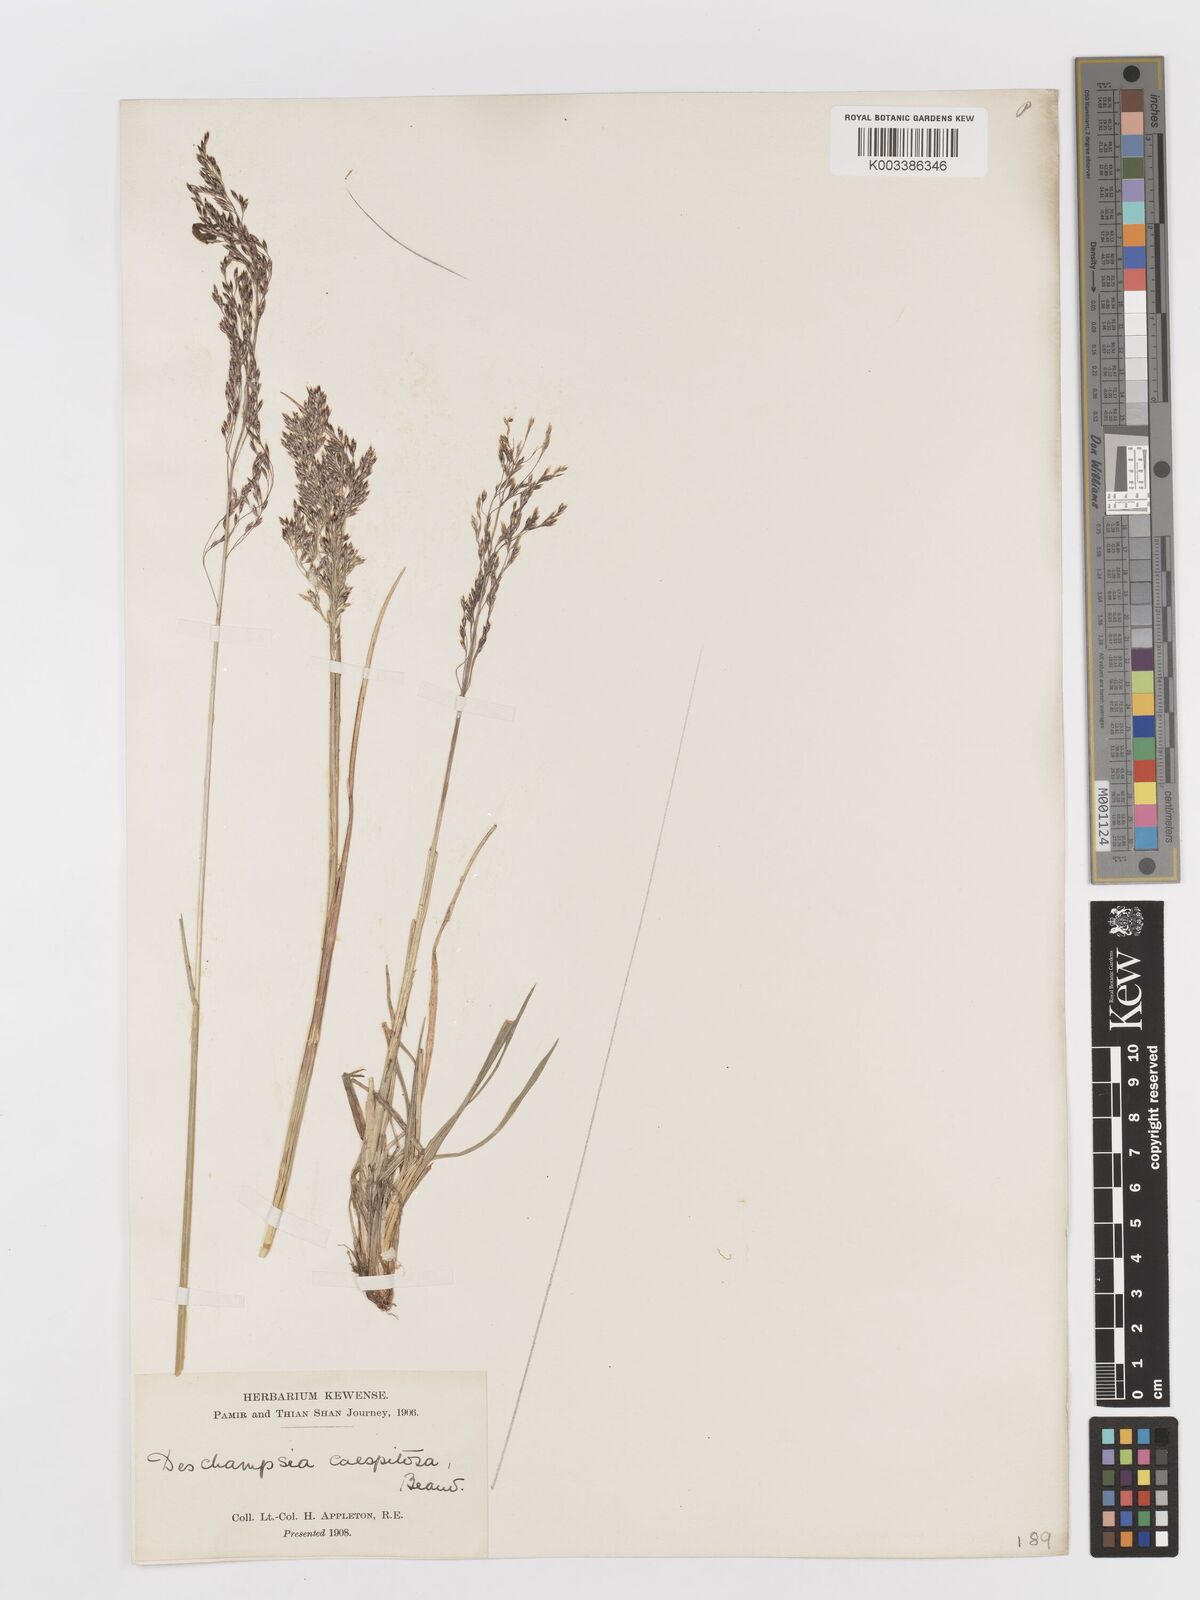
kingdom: Plantae
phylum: Tracheophyta
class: Liliopsida
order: Poales
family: Poaceae
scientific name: Poaceae
